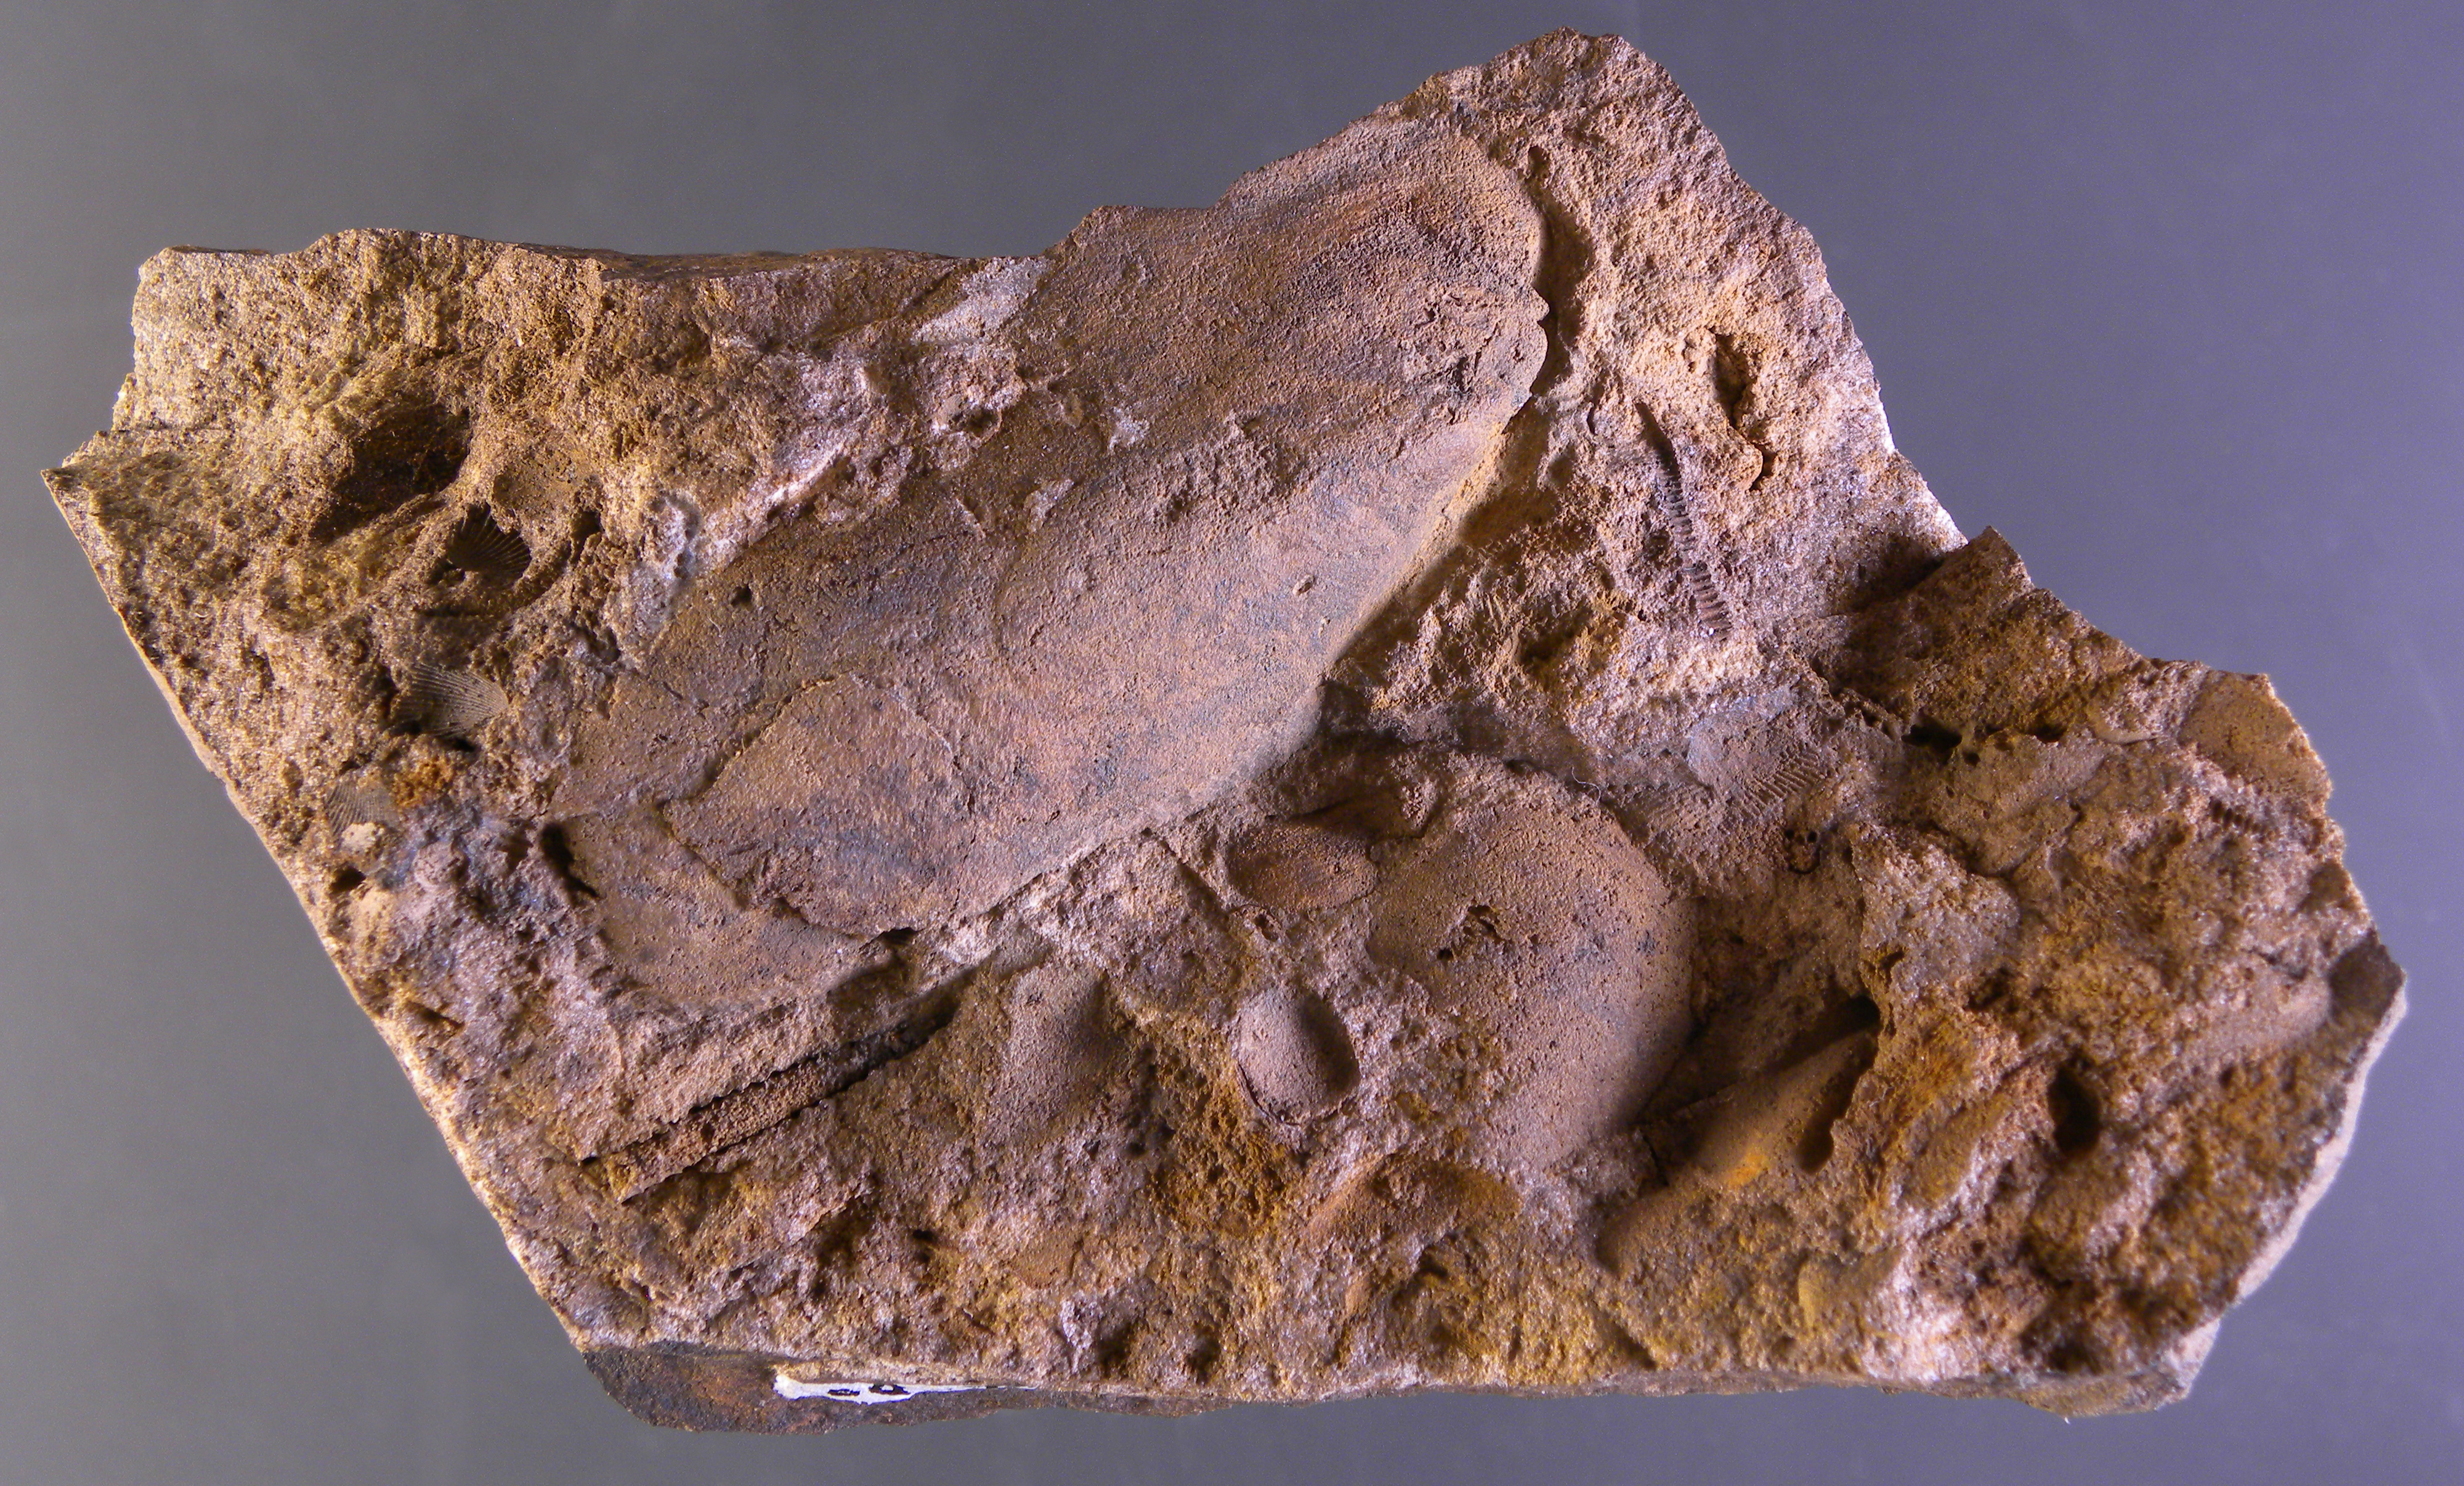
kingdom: Animalia
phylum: Mollusca
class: Bivalvia
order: Modiomorphida
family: Modiomorphidae
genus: Modiomorpha
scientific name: Modiomorpha
